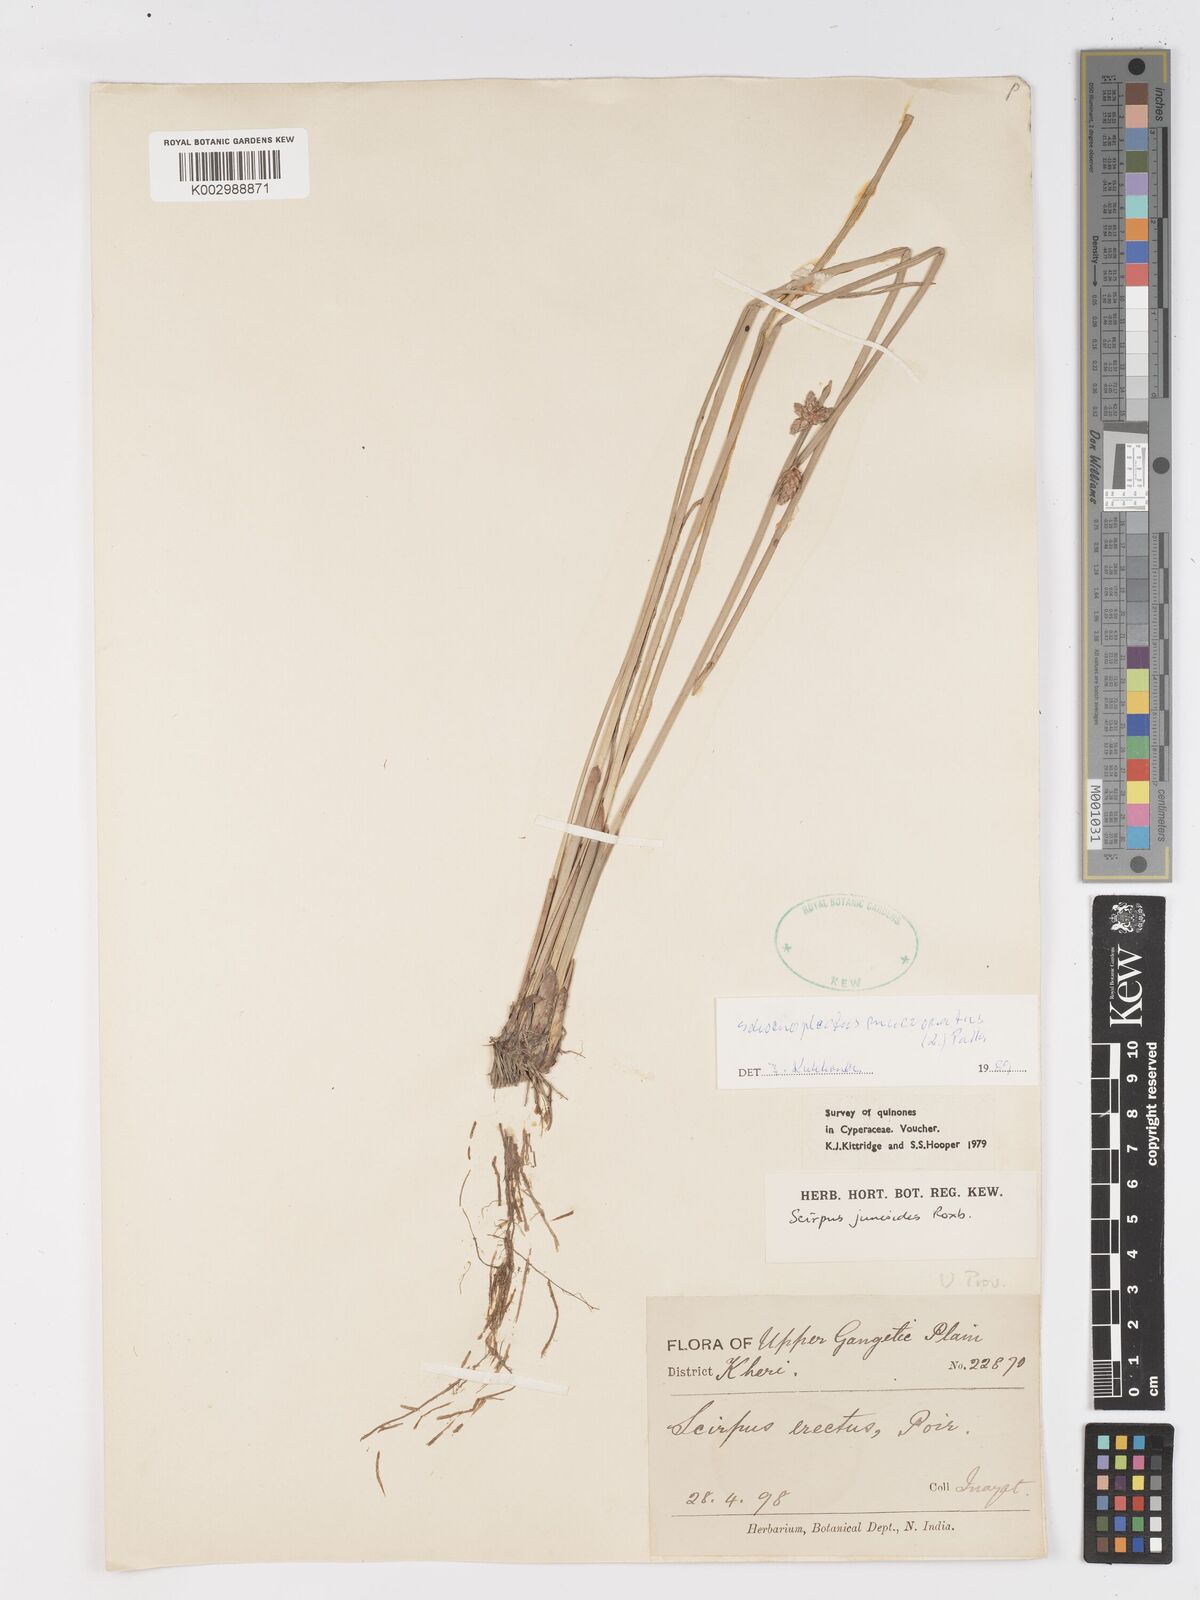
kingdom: Plantae
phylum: Tracheophyta
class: Liliopsida
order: Poales
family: Cyperaceae
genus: Schoenoplectiella
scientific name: Schoenoplectiella praelongata
